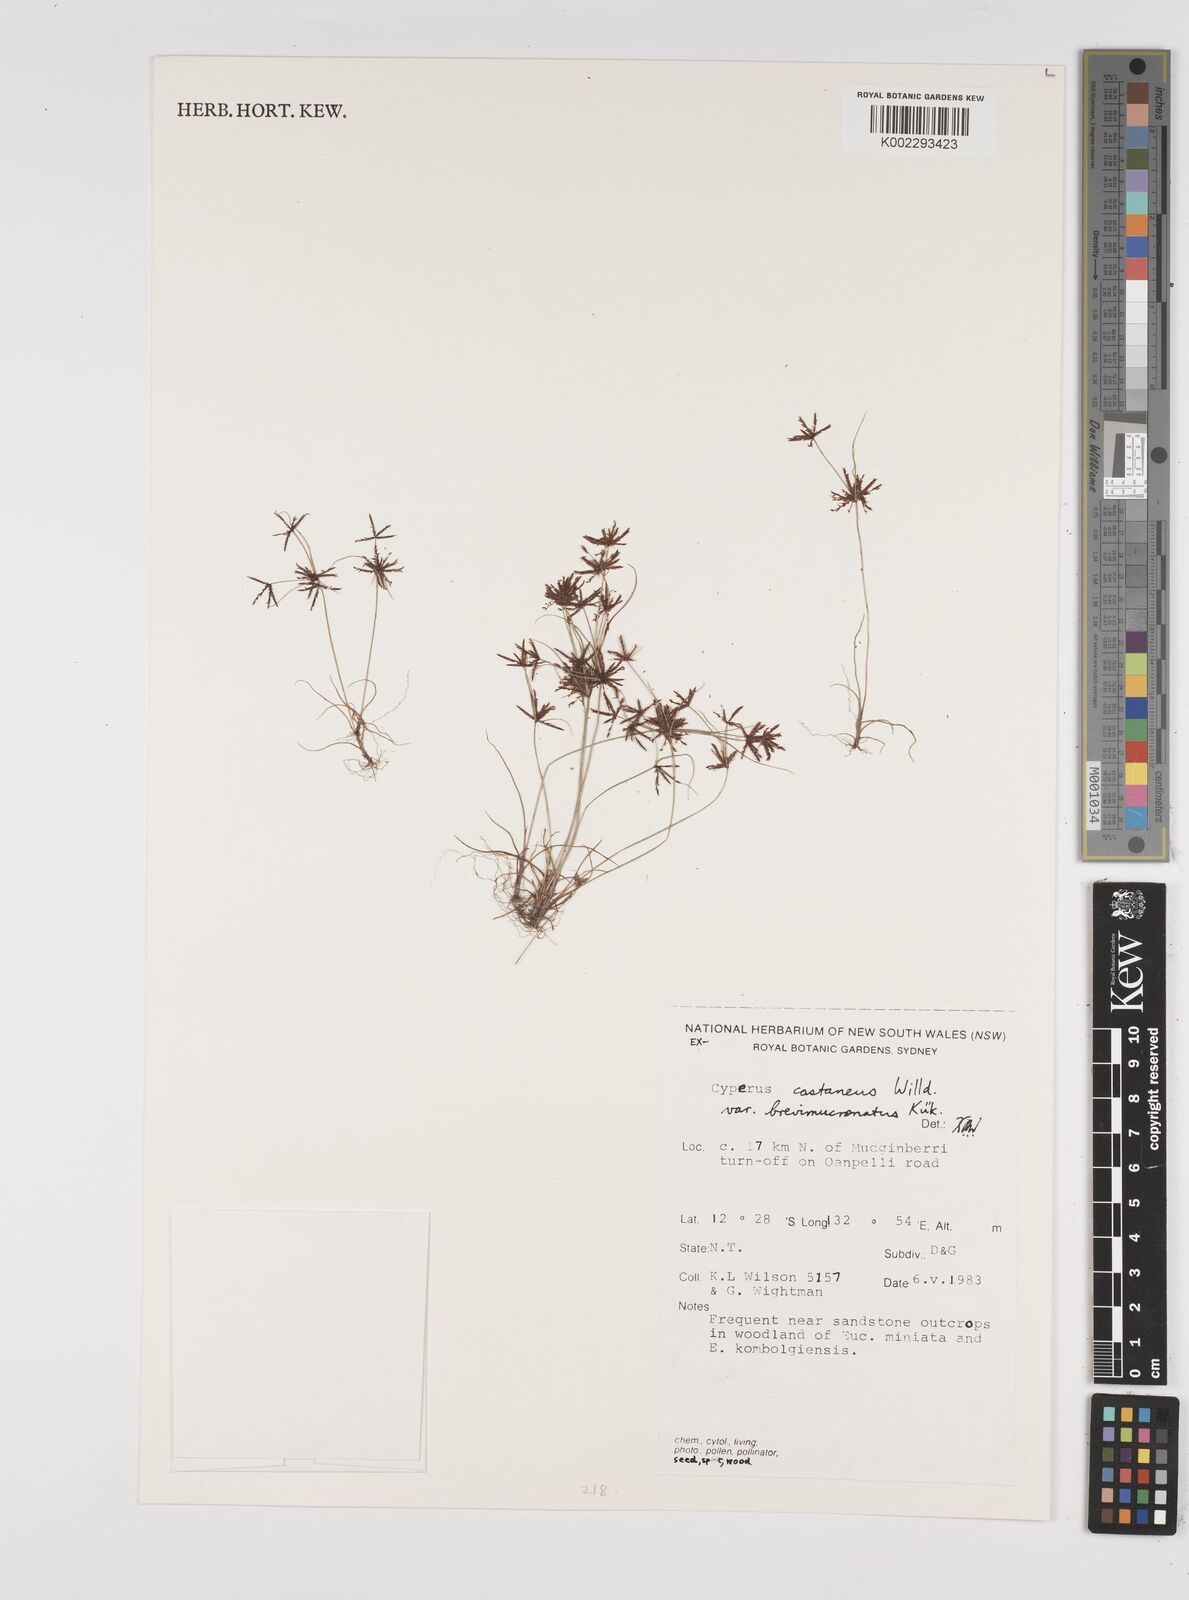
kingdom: Plantae
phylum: Tracheophyta
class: Liliopsida
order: Poales
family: Cyperaceae
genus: Cyperus
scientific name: Cyperus castaneus
